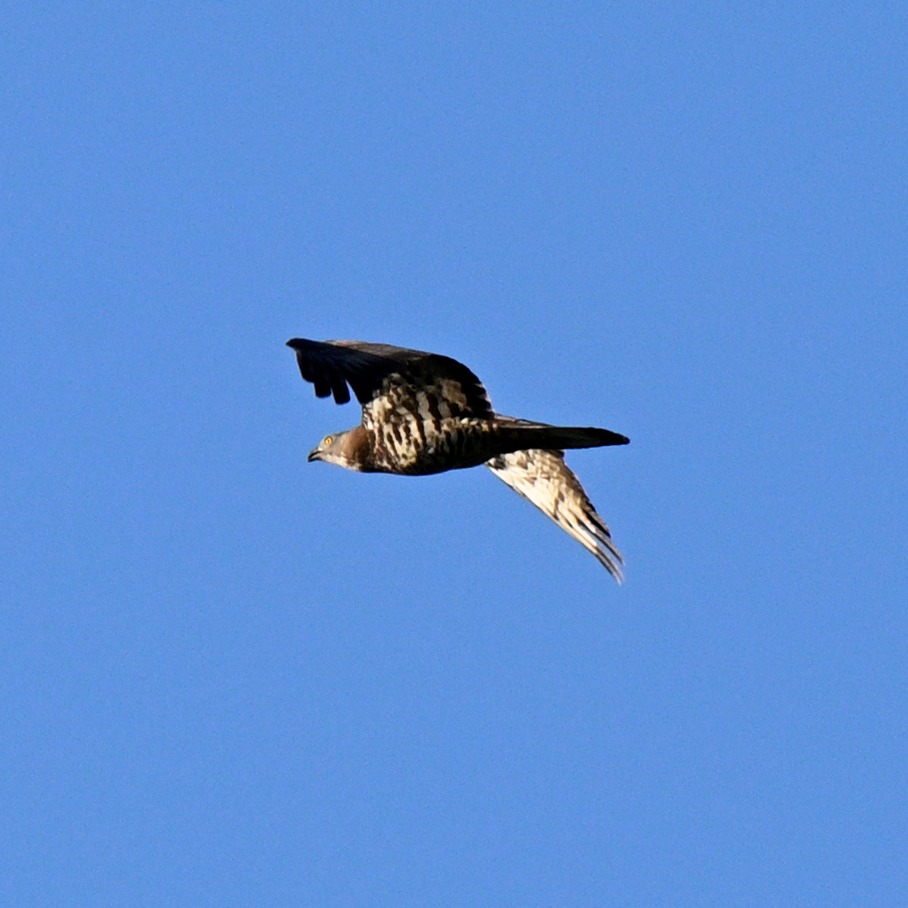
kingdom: Animalia
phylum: Chordata
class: Aves
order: Accipitriformes
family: Accipitridae
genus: Pernis
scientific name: Pernis apivorus
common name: Hvepsevåge
